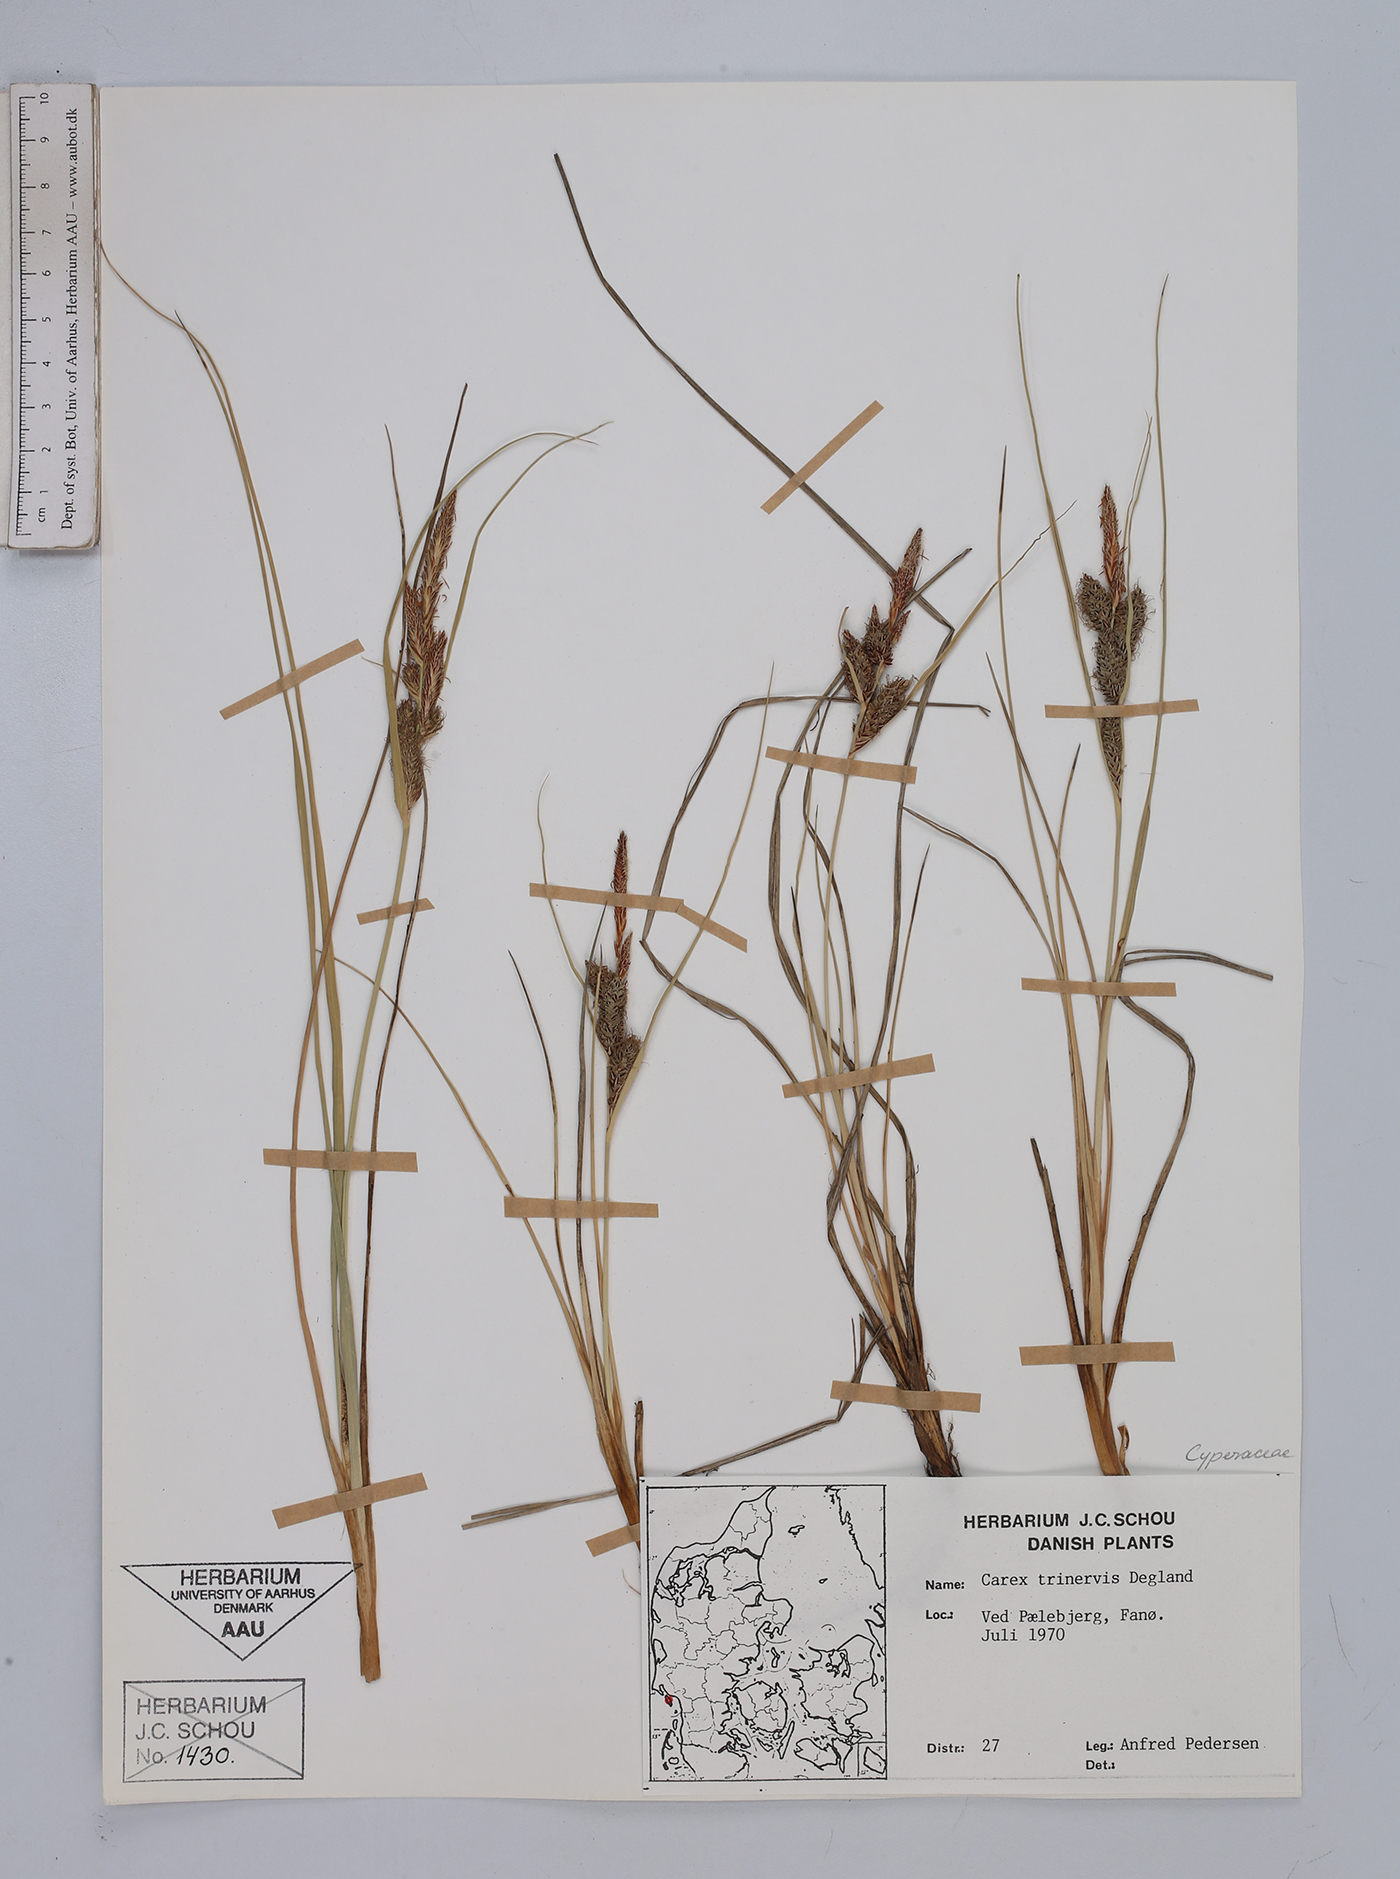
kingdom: Plantae
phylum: Tracheophyta
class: Liliopsida
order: Poales
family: Cyperaceae
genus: Carex
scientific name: Carex trinervis
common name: Three-nerved sedge
